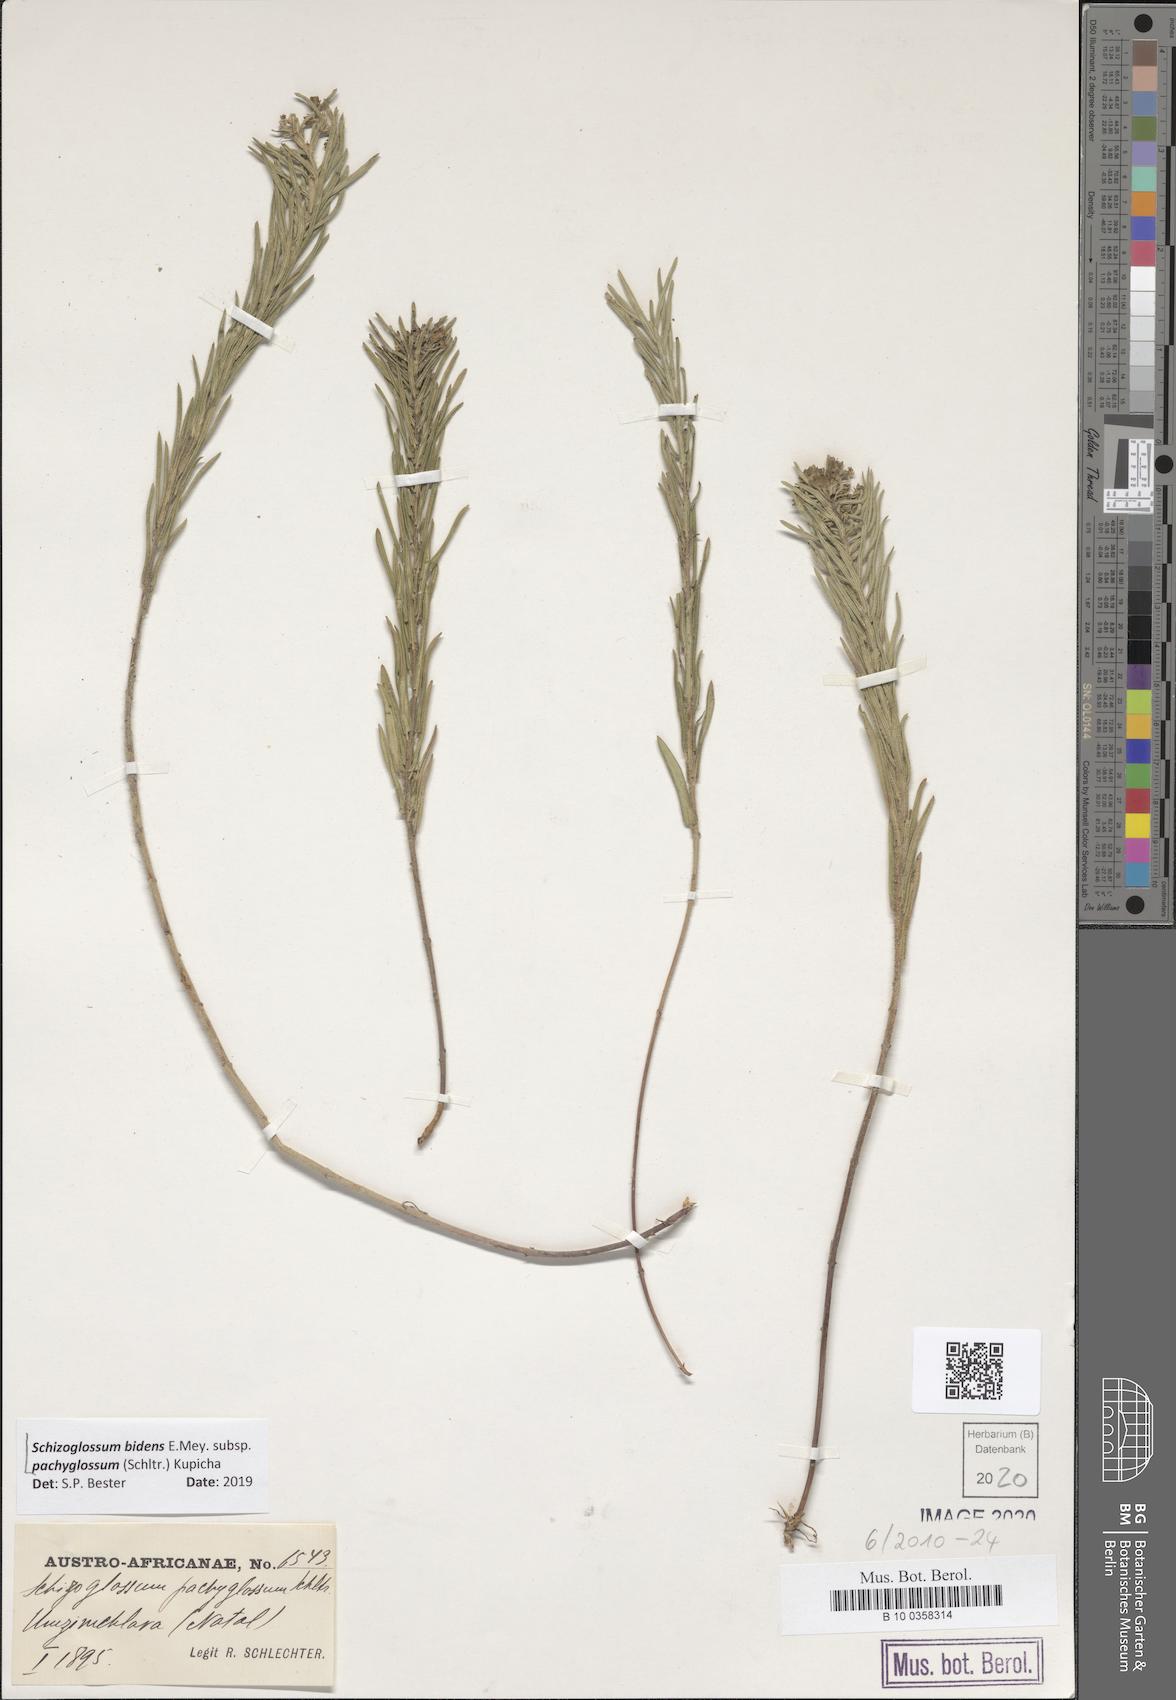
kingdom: Plantae
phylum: Tracheophyta
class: Magnoliopsida
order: Gentianales
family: Apocynaceae
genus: Schizoglossum
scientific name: Schizoglossum bidens
